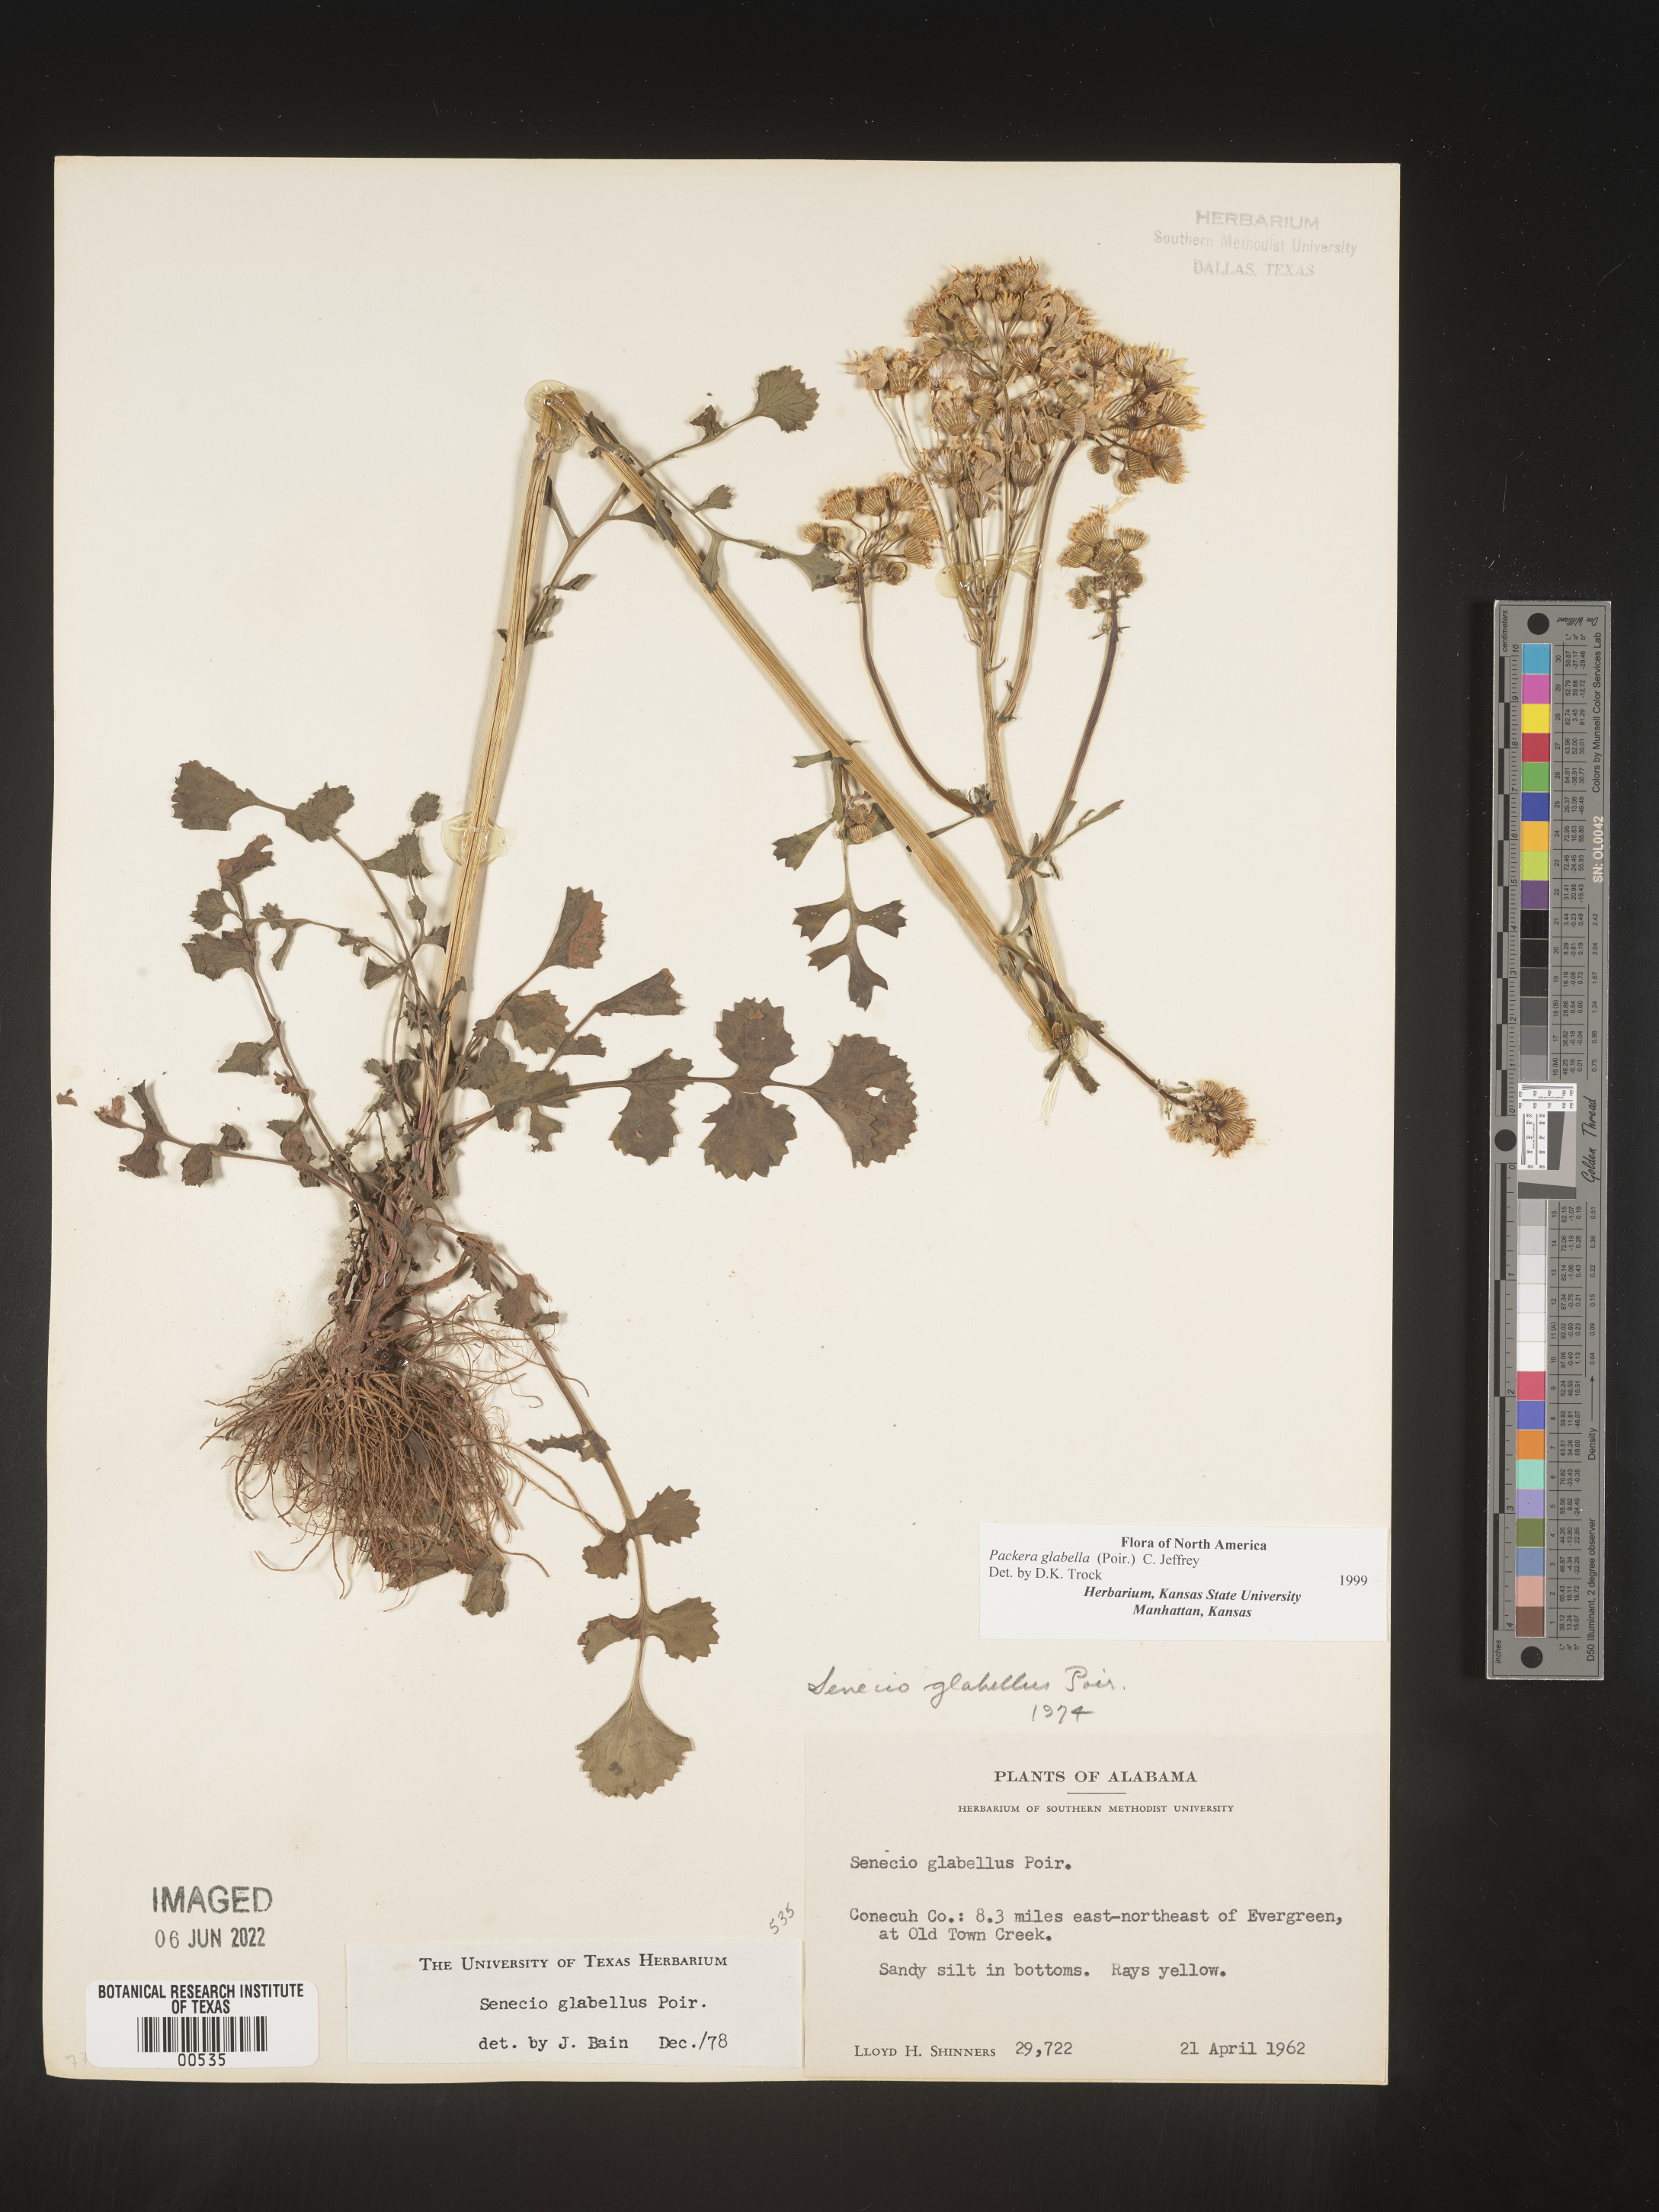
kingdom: Plantae
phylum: Tracheophyta
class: Magnoliopsida
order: Asterales
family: Asteraceae
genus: Packera
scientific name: Packera glabella
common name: Butterweed
